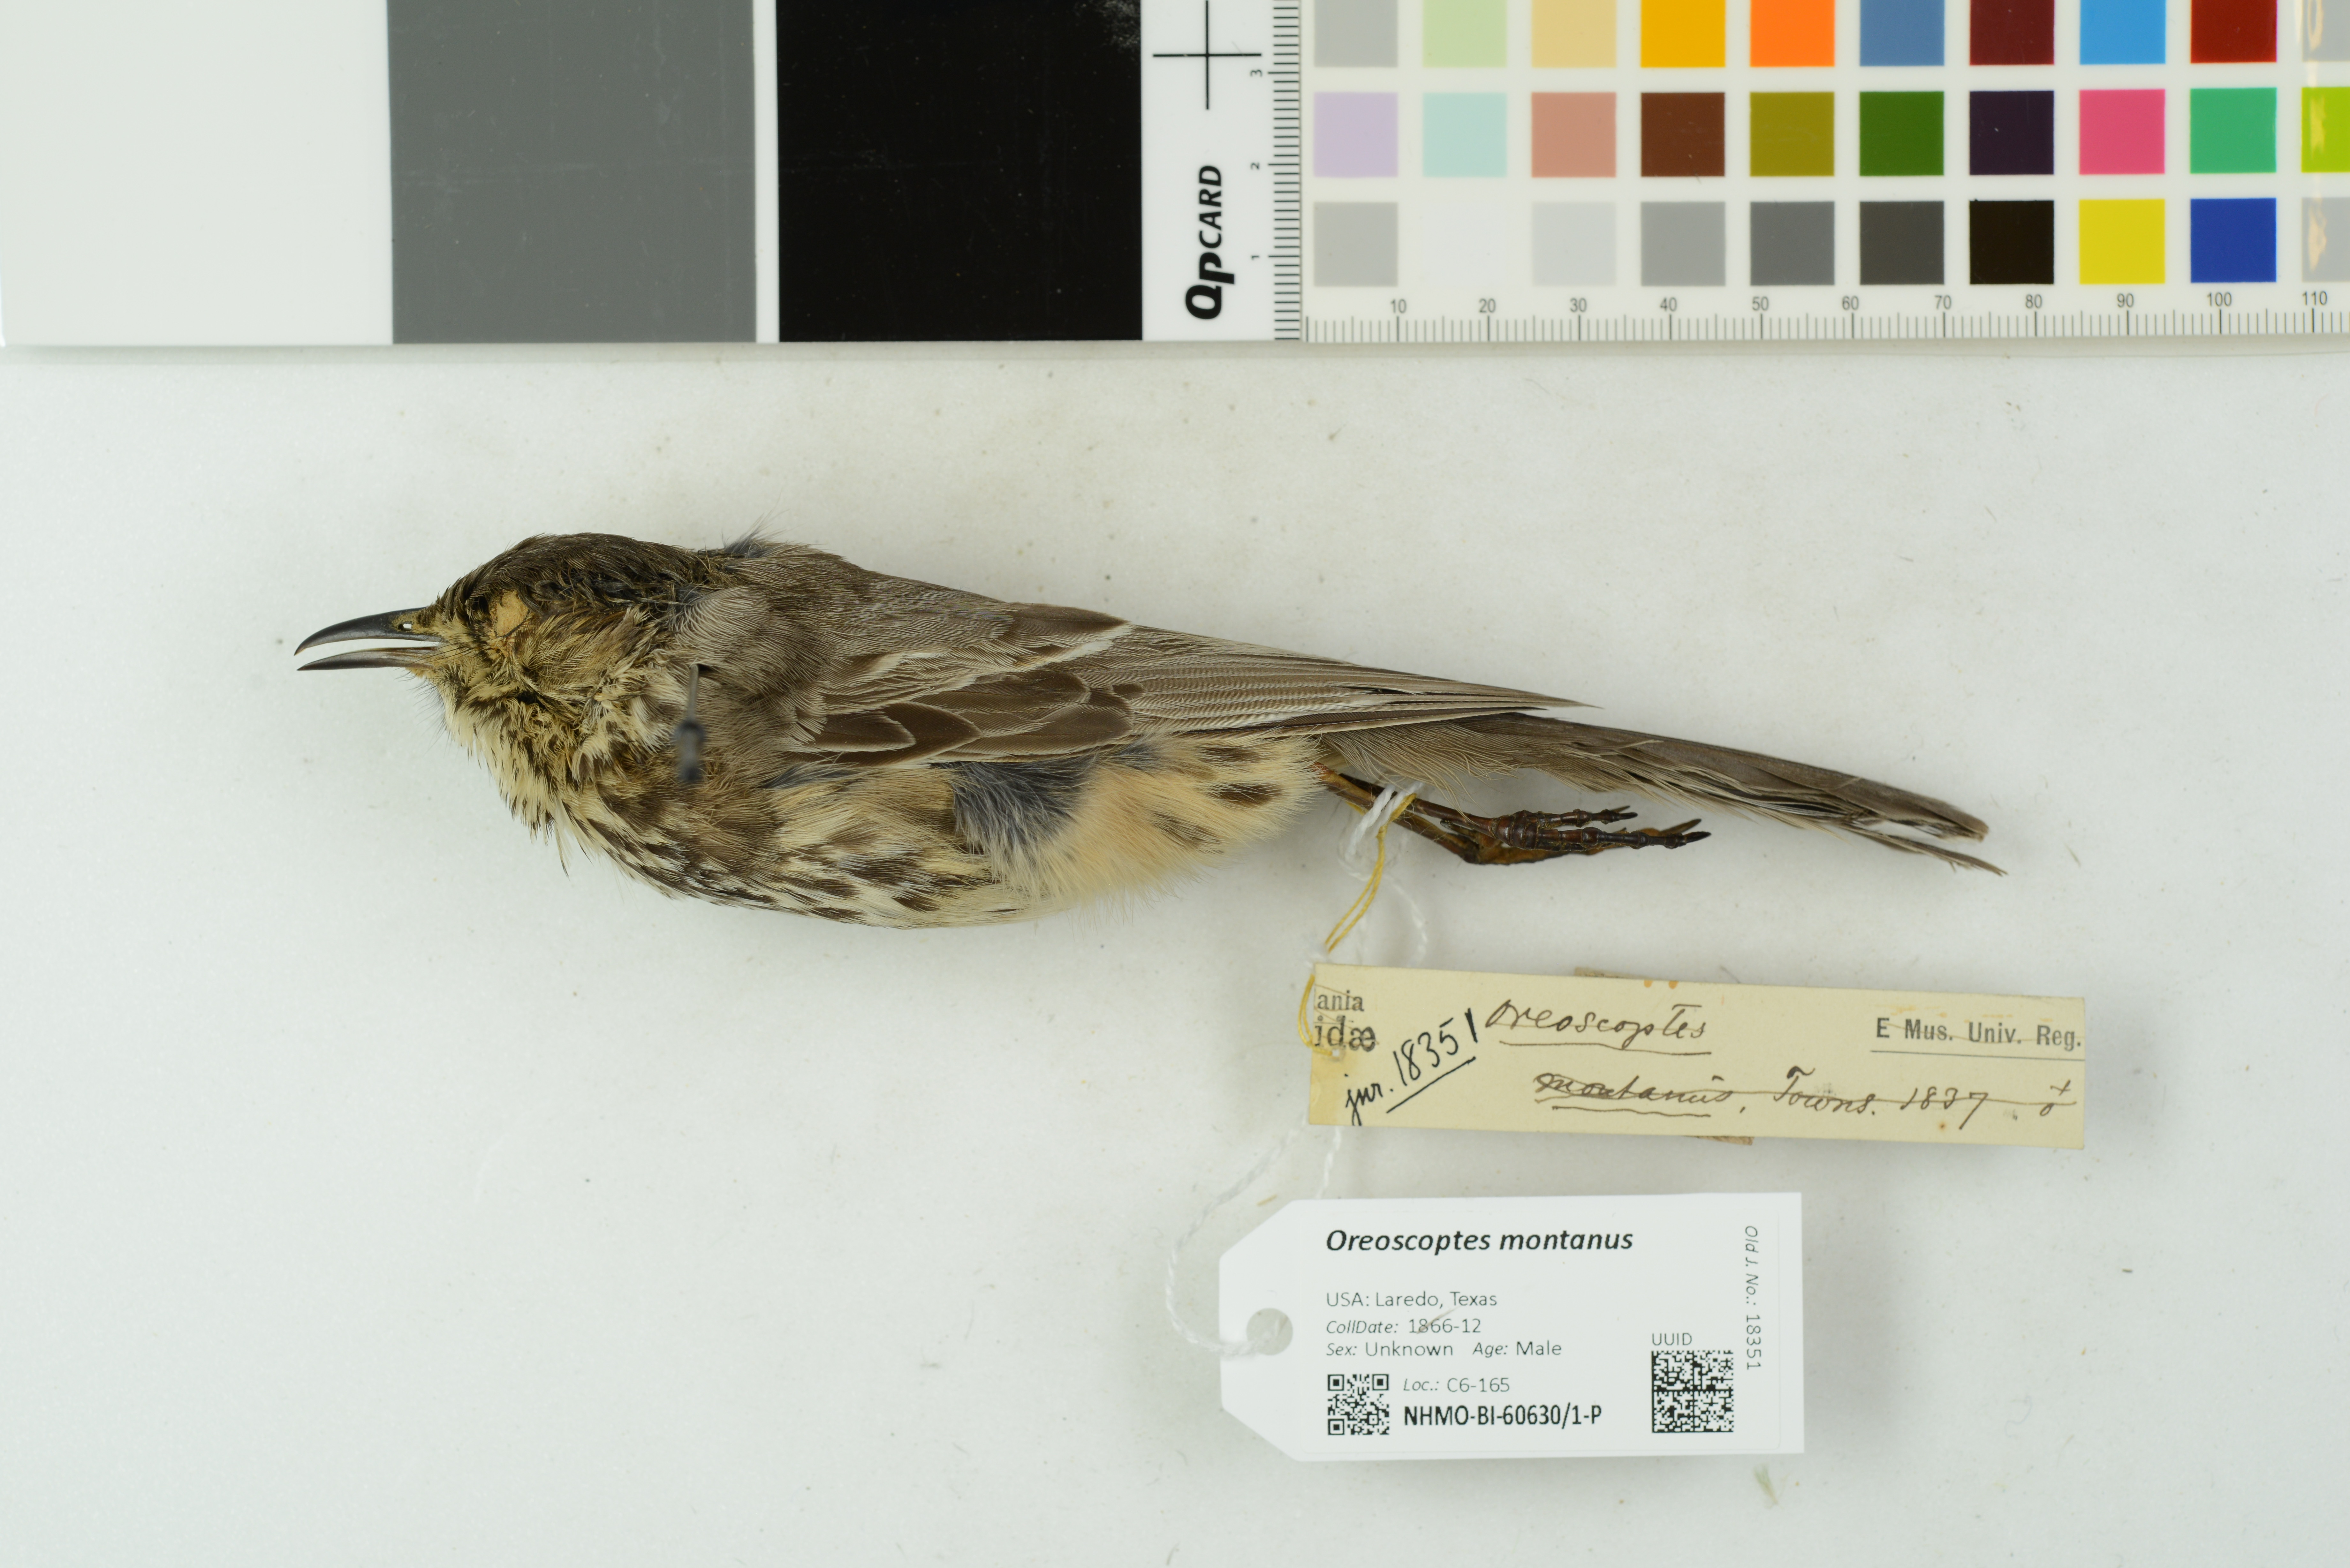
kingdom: Animalia
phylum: Chordata
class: Aves
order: Passeriformes
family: Mimidae
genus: Oreoscoptes
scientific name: Oreoscoptes montanus
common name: Sage thrasher
